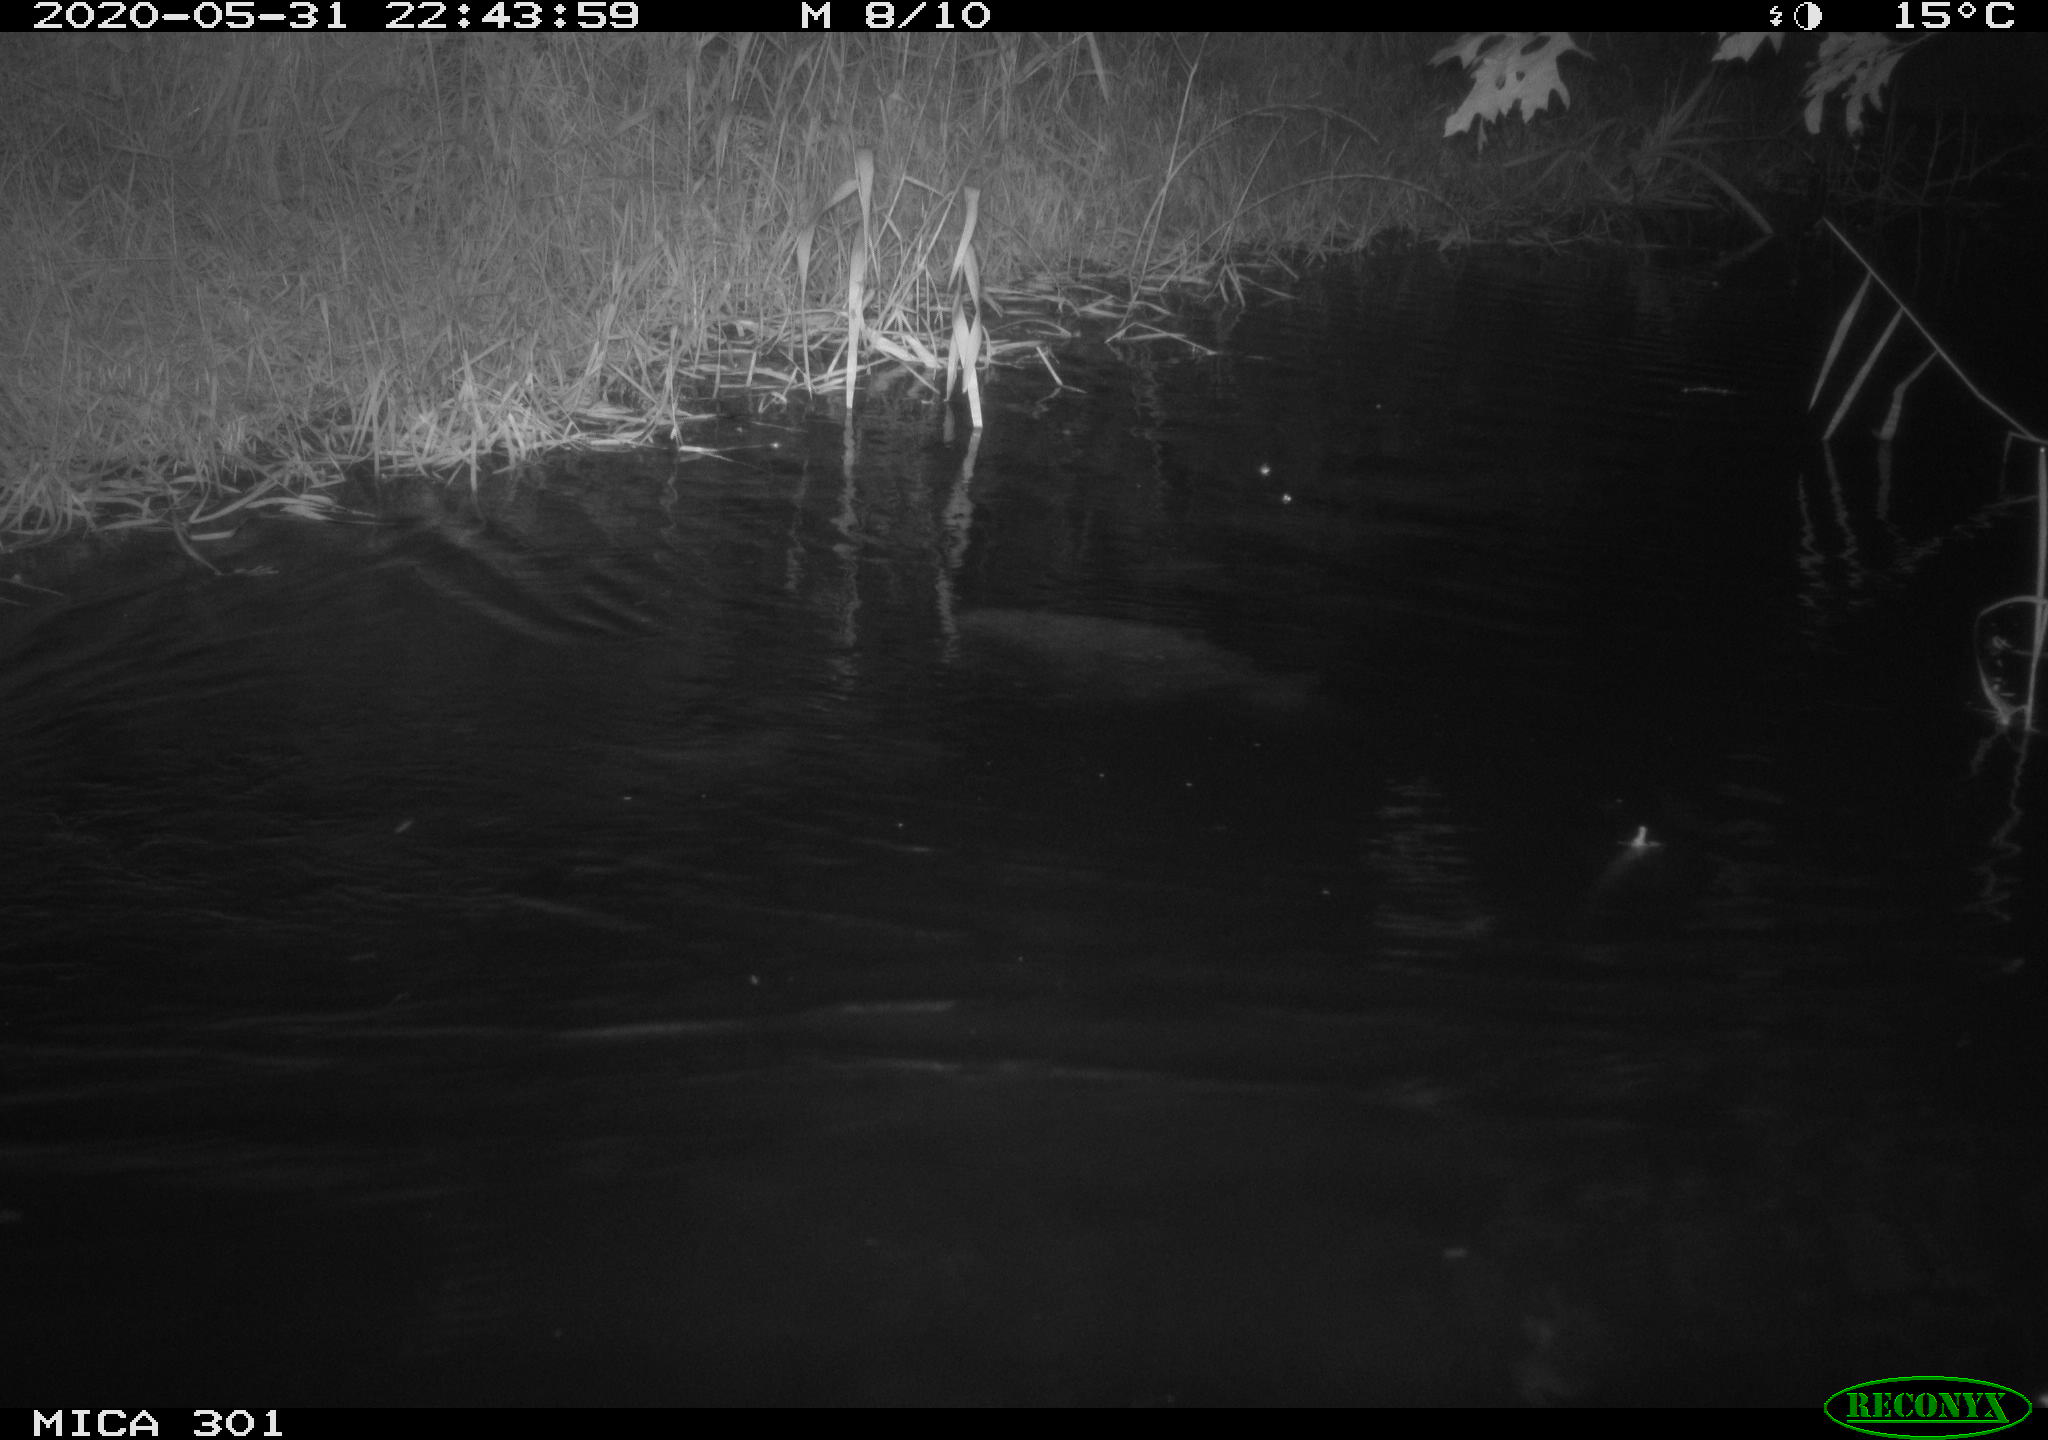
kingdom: Animalia
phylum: Chordata
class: Mammalia
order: Rodentia
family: Castoridae
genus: Castor
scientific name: Castor fiber
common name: Eurasian beaver
